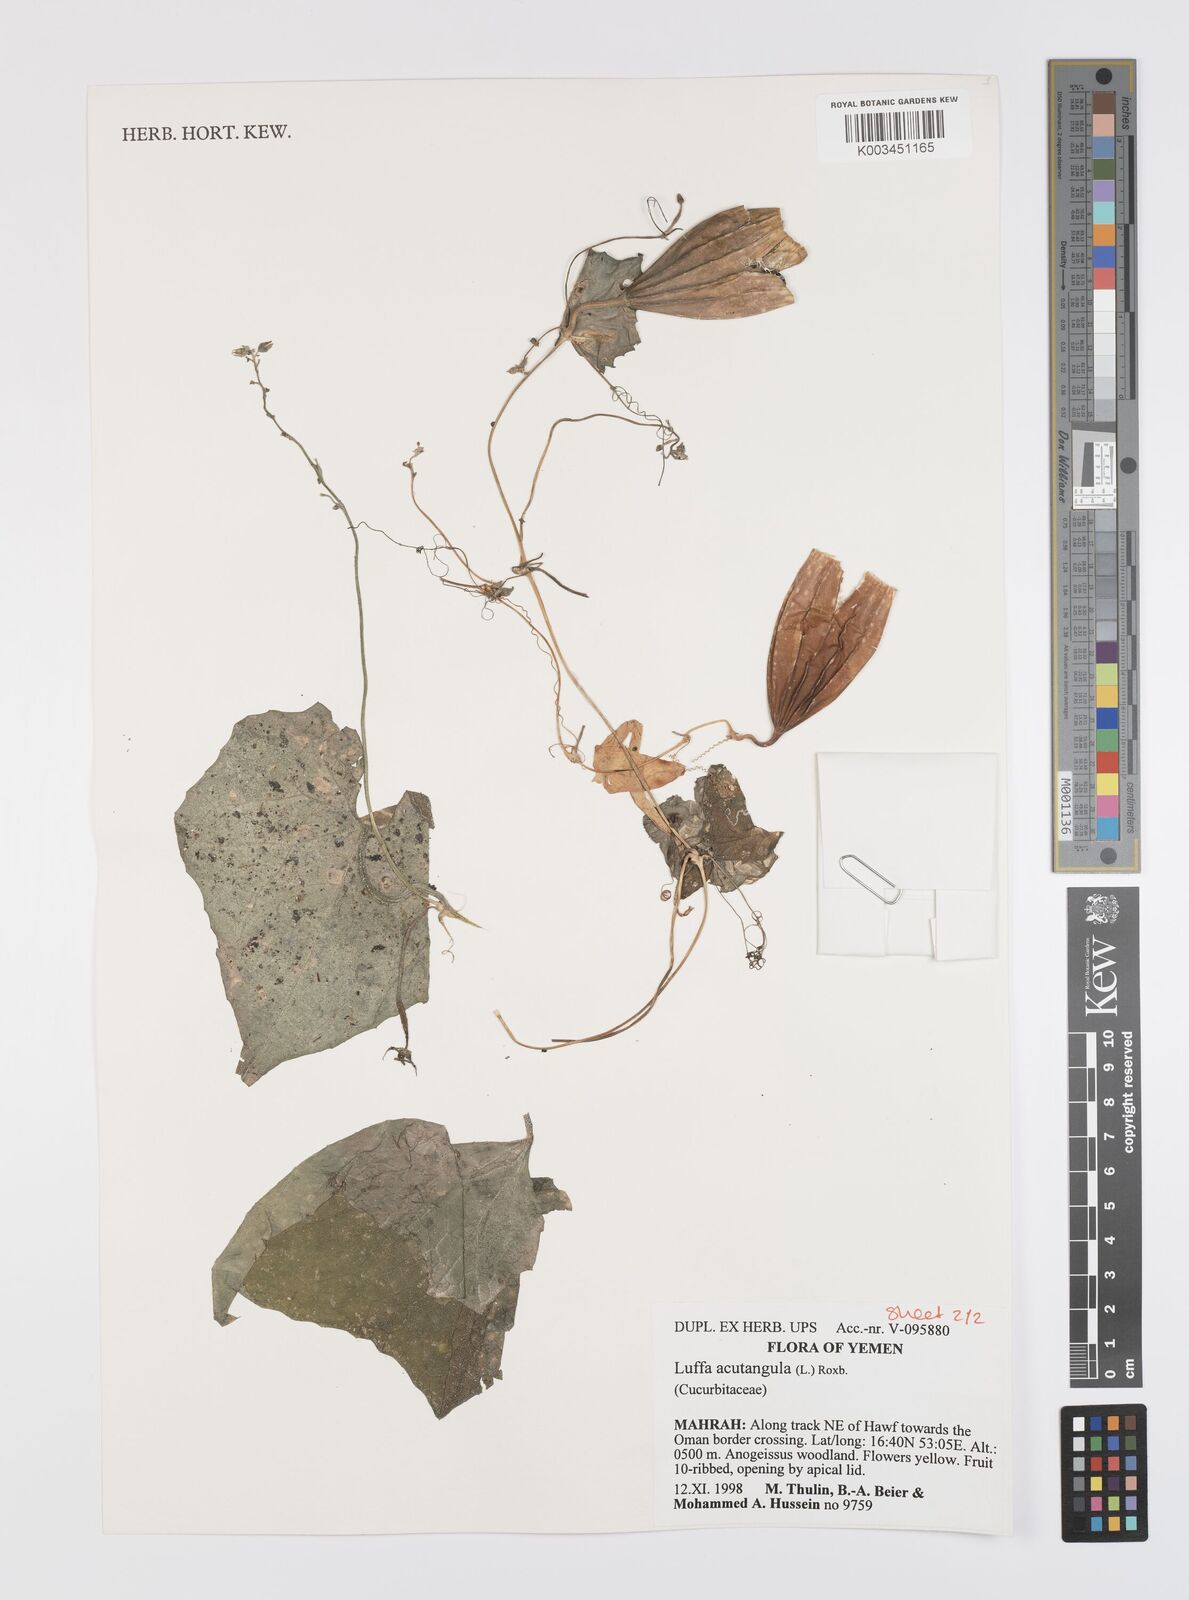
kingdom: Plantae
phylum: Tracheophyta
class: Magnoliopsida
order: Cucurbitales
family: Cucurbitaceae
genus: Luffa
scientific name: Luffa acutangula
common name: Sinkwa towelsponge
